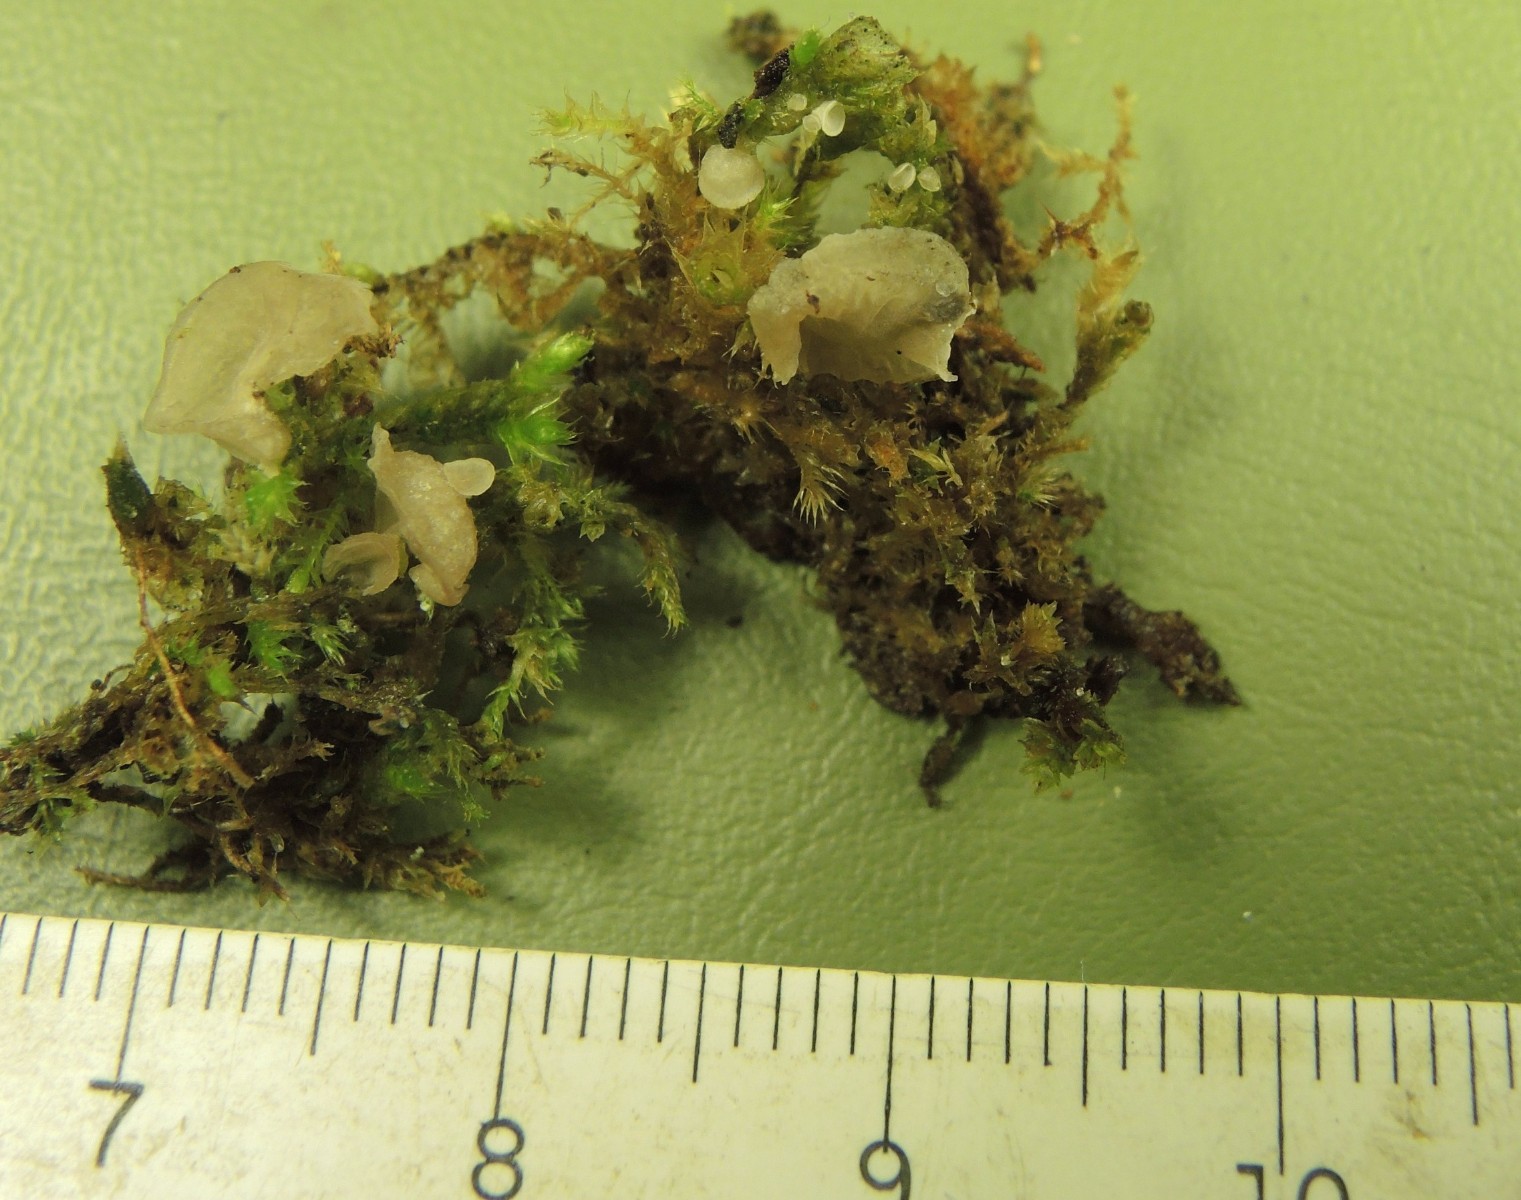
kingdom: Fungi
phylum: Basidiomycota
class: Agaricomycetes
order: Agaricales
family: Hygrophoraceae
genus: Arrhenia
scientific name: Arrhenia retiruga
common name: lille fontænehat
